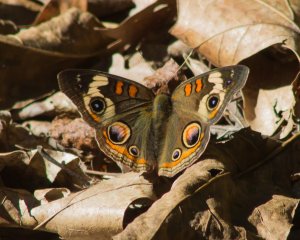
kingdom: Animalia
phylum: Arthropoda
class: Insecta
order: Lepidoptera
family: Nymphalidae
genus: Junonia
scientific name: Junonia coenia
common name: Common Buckeye
